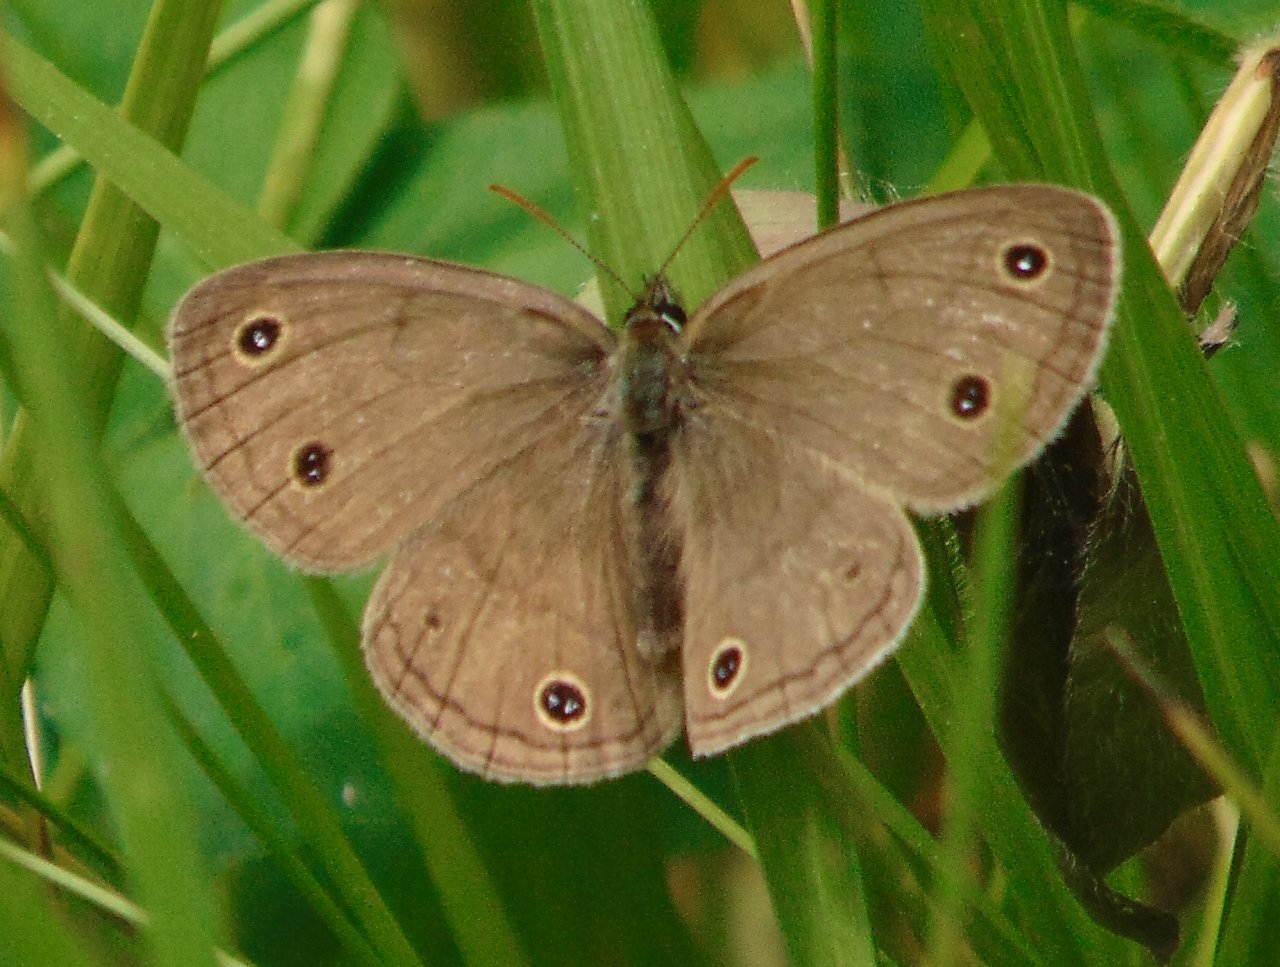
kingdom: Animalia
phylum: Arthropoda
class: Insecta
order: Lepidoptera
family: Nymphalidae
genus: Euptychia
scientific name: Euptychia cymela
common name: Little Wood Satyr
